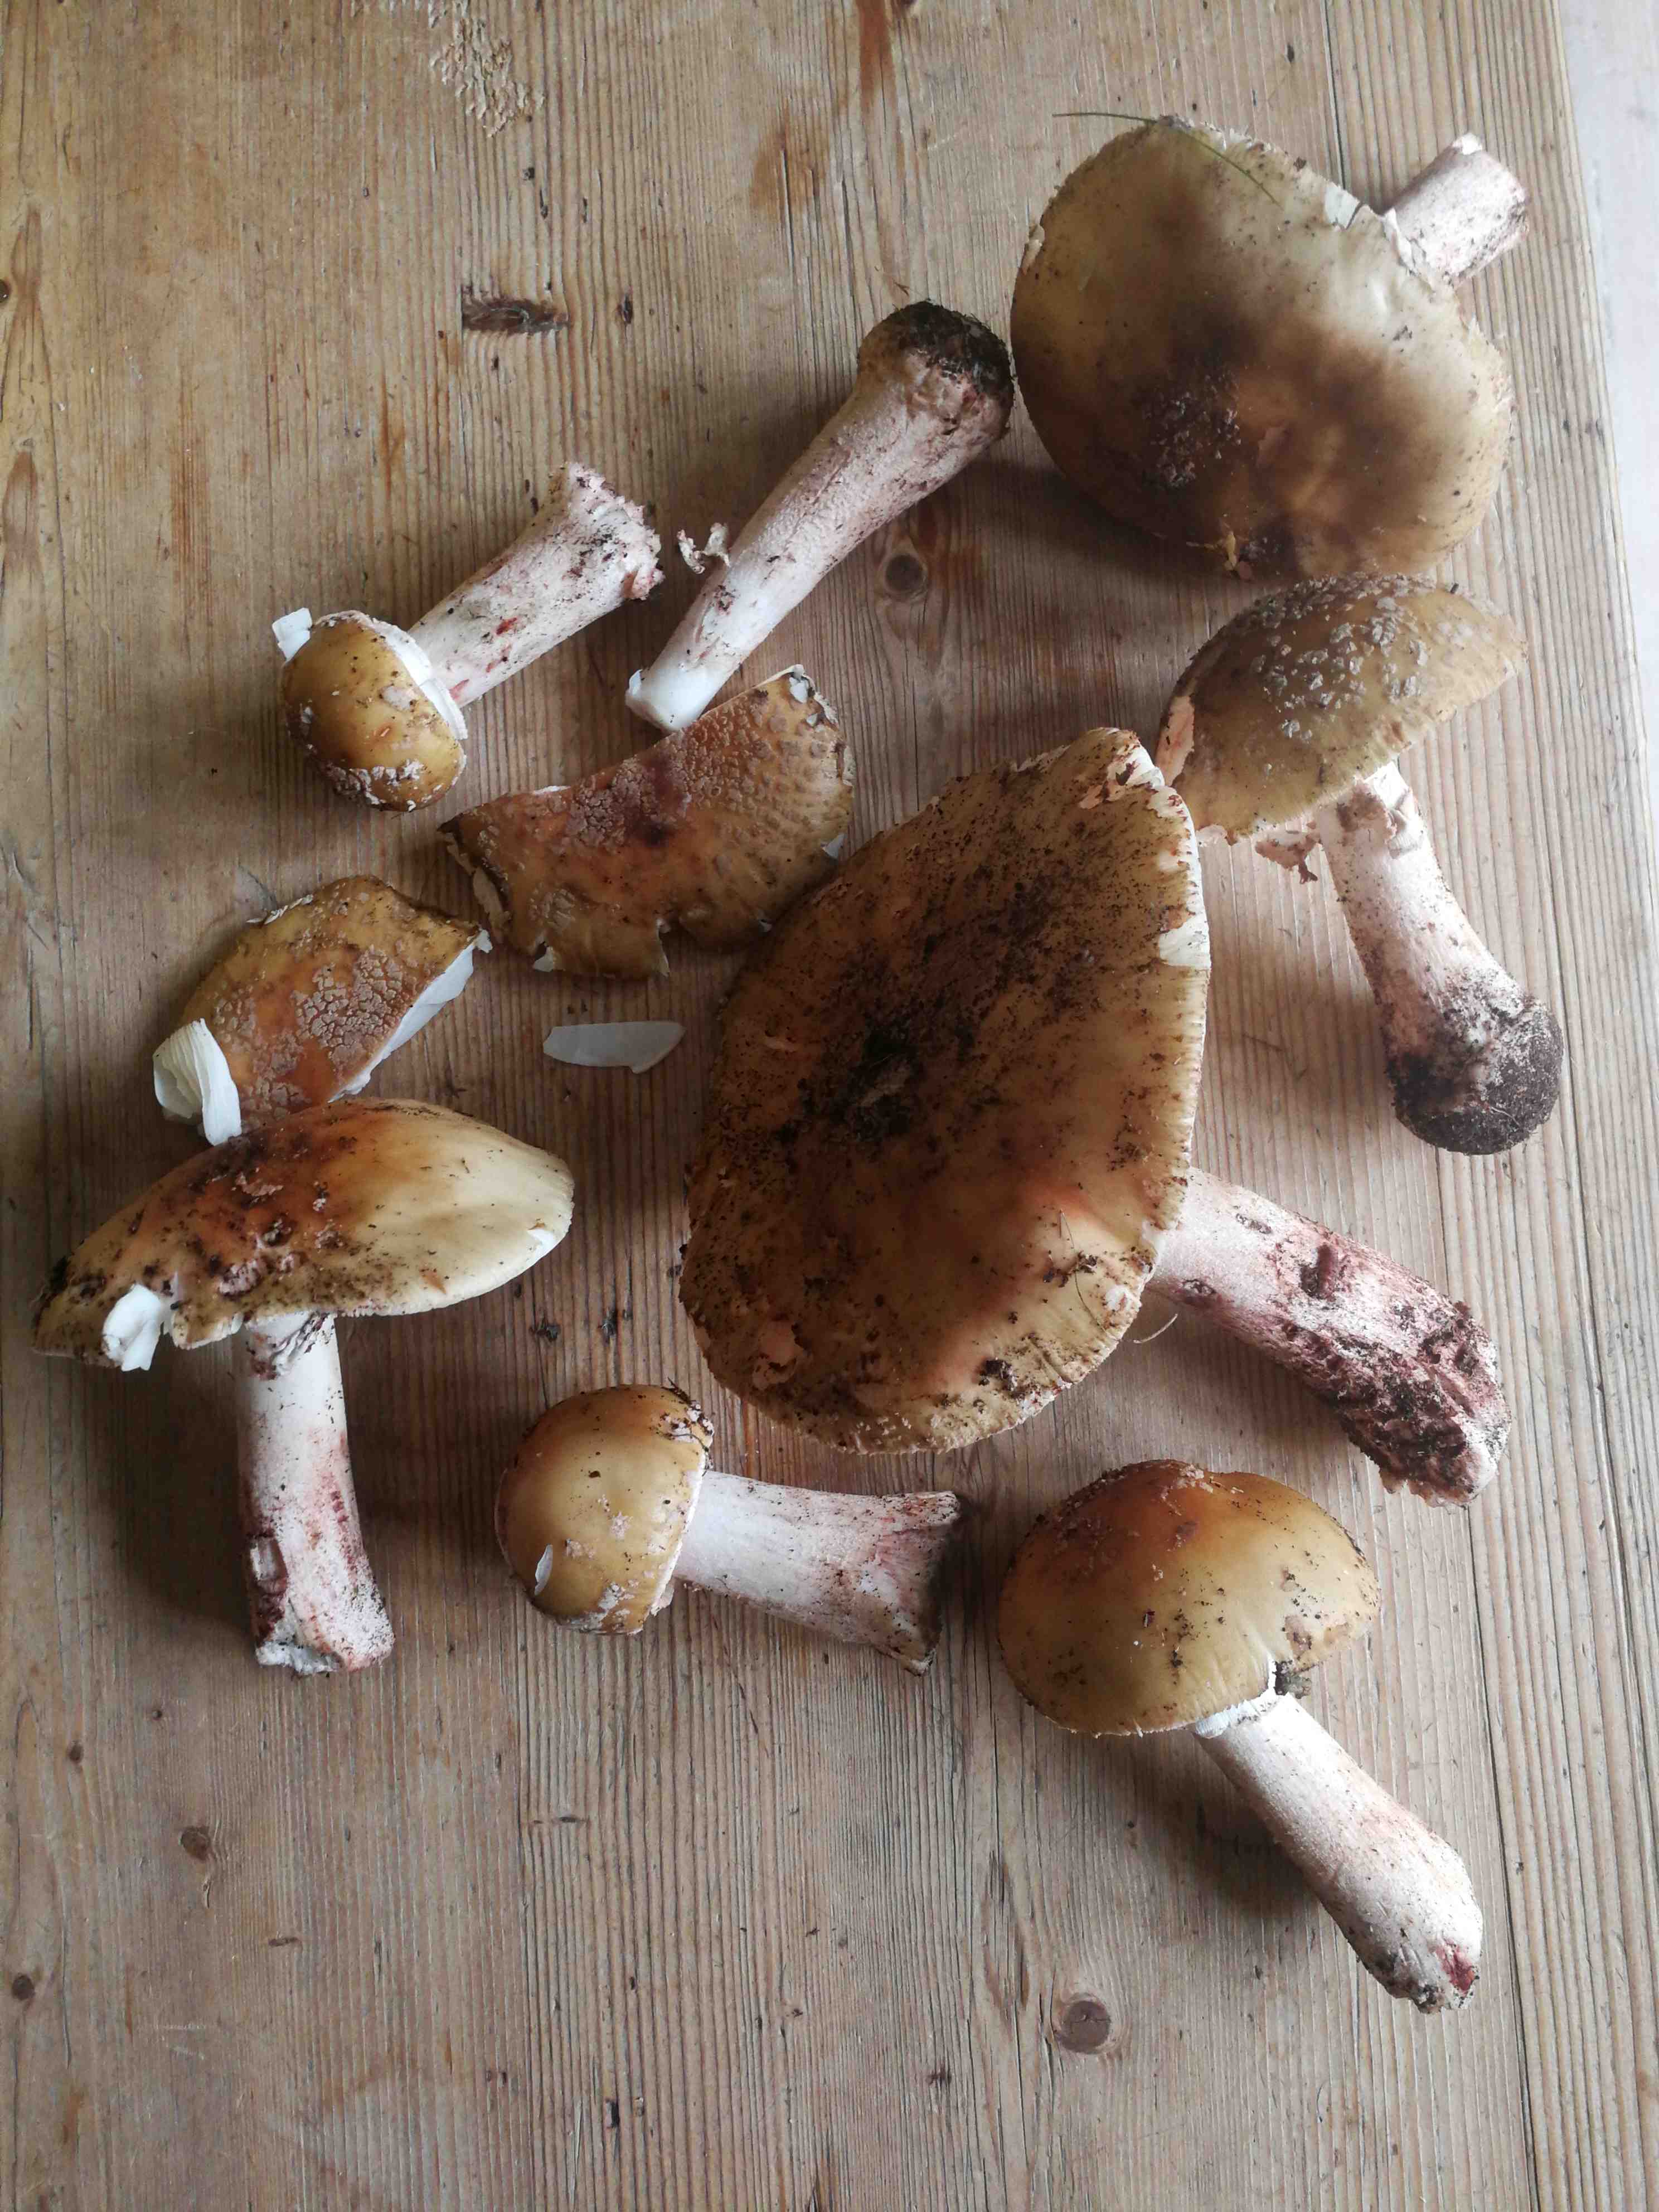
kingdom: Fungi
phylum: Basidiomycota
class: Agaricomycetes
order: Agaricales
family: Amanitaceae
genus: Amanita
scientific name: Amanita rubescens
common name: rødmende fluesvamp
